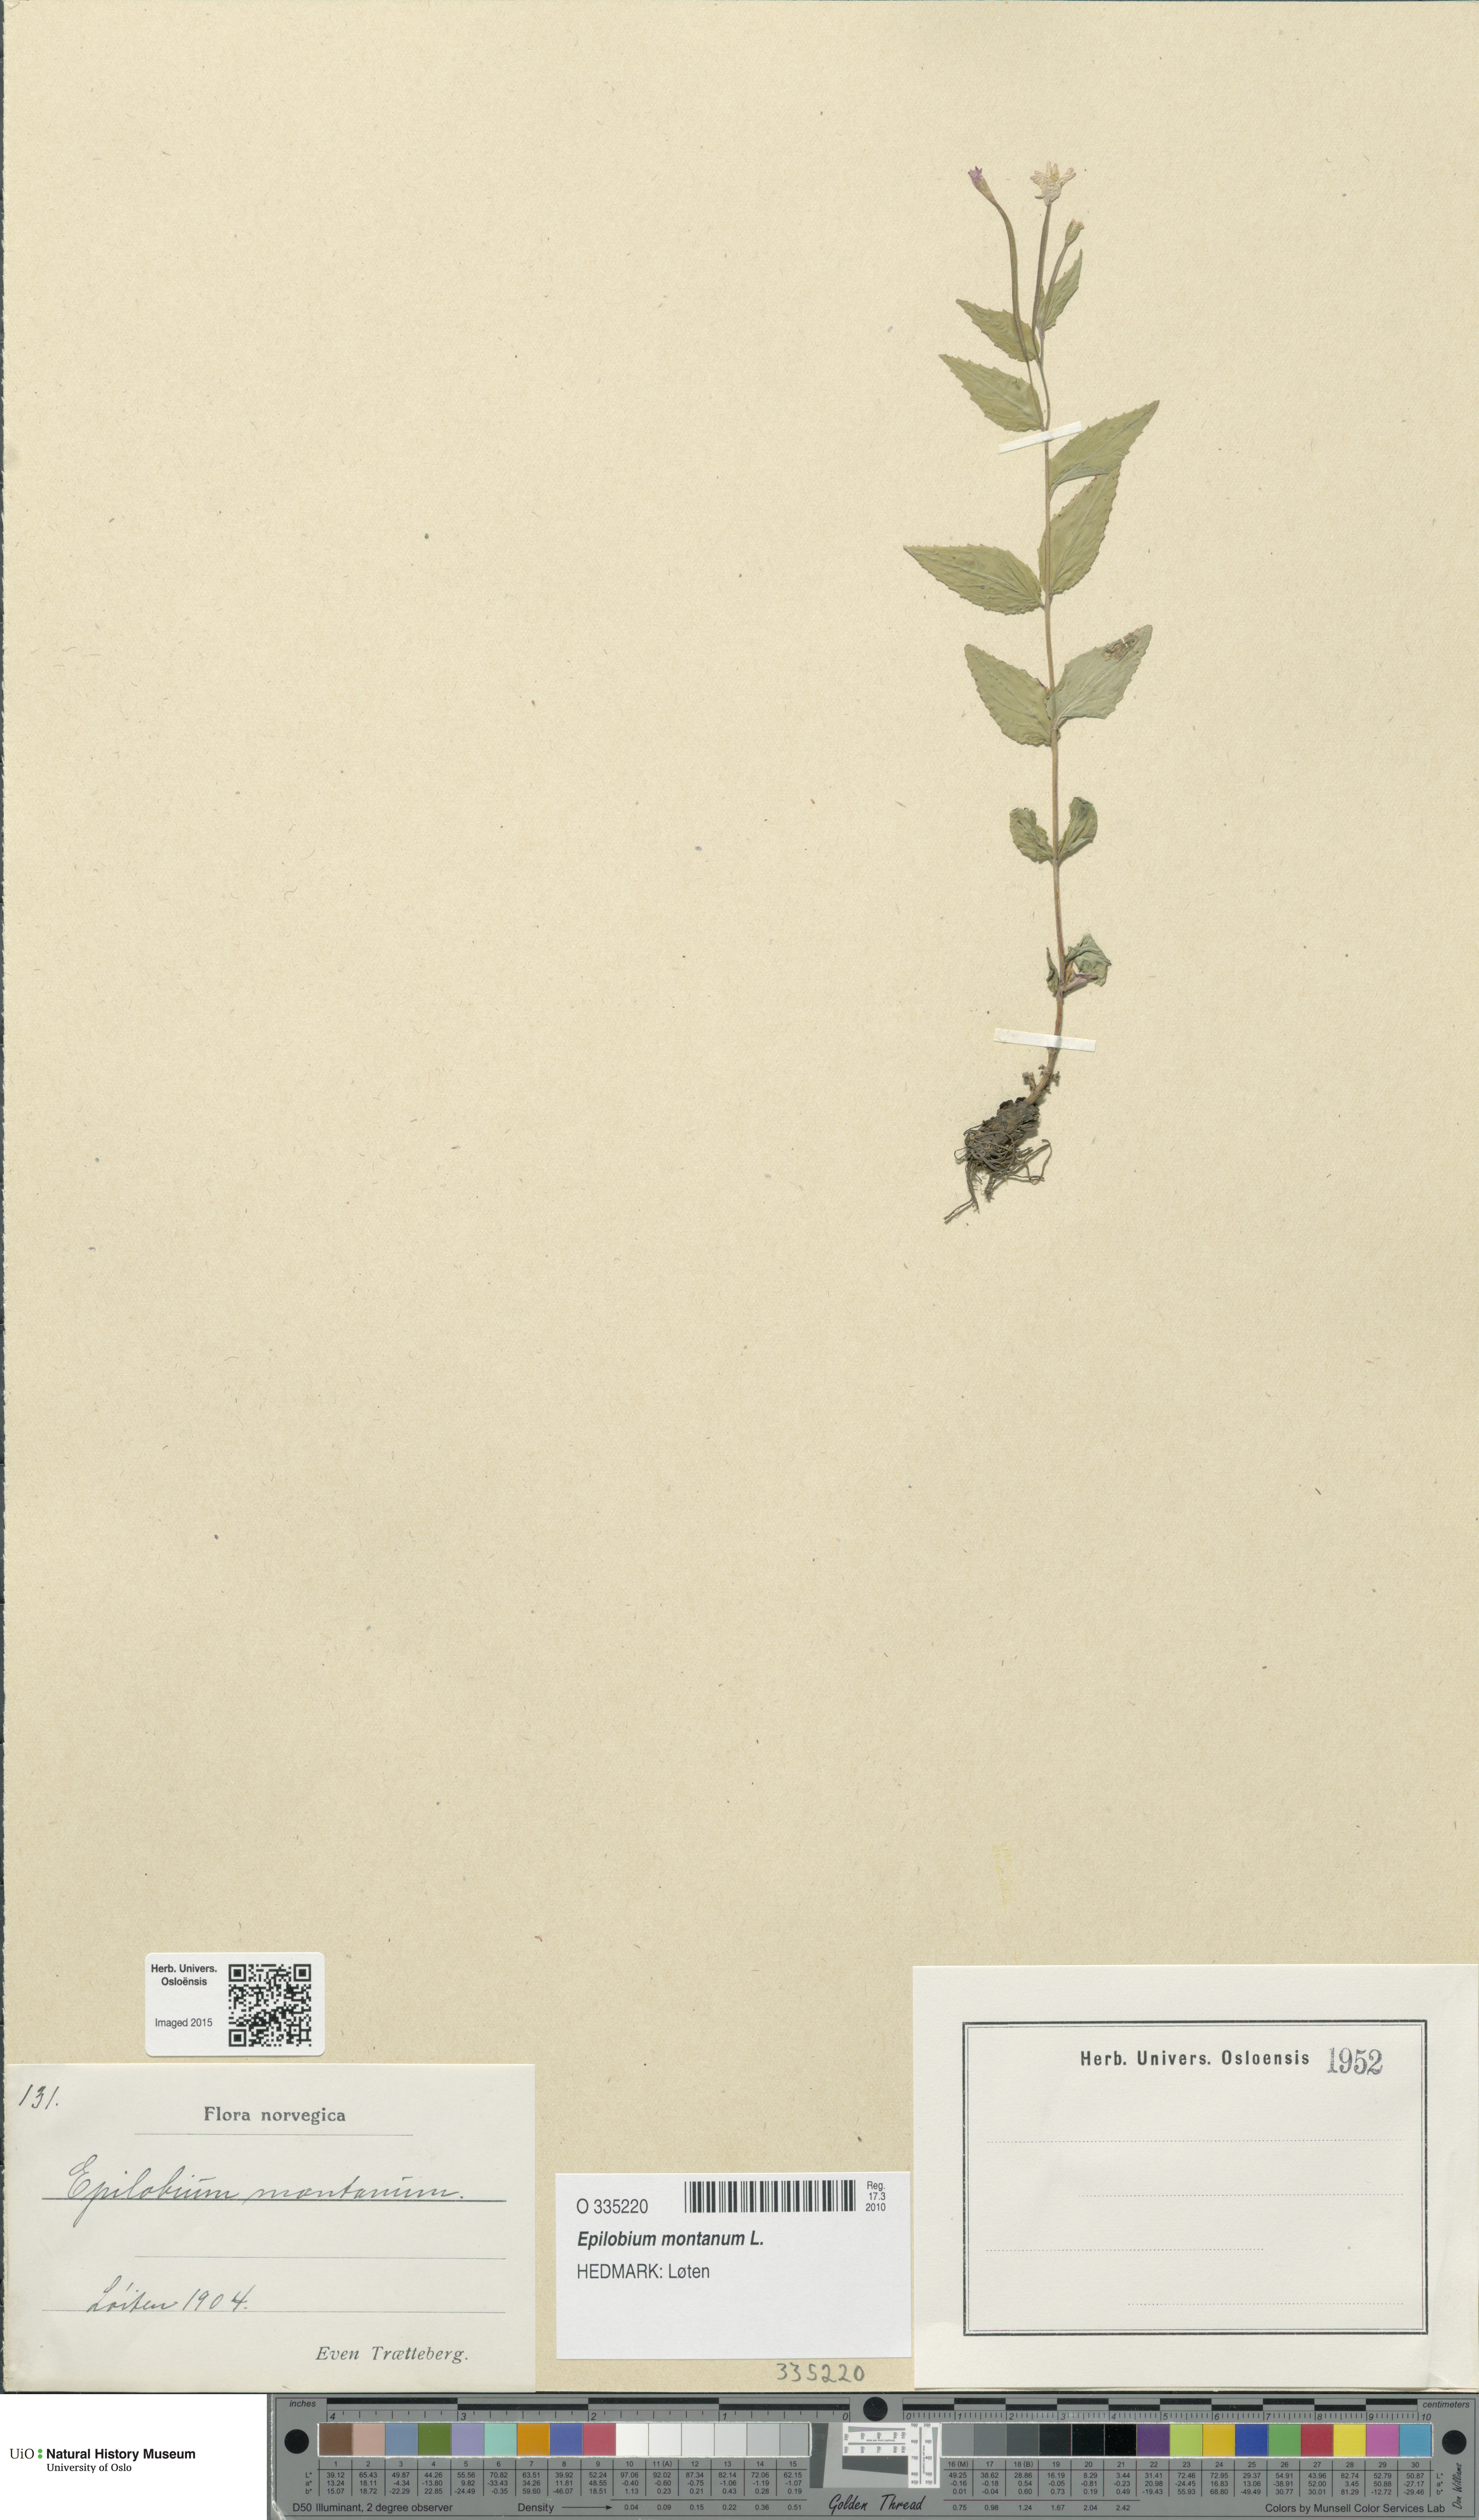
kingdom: Plantae
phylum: Tracheophyta
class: Magnoliopsida
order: Myrtales
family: Onagraceae
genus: Epilobium
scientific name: Epilobium montanum
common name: Broad-leaved willowherb
